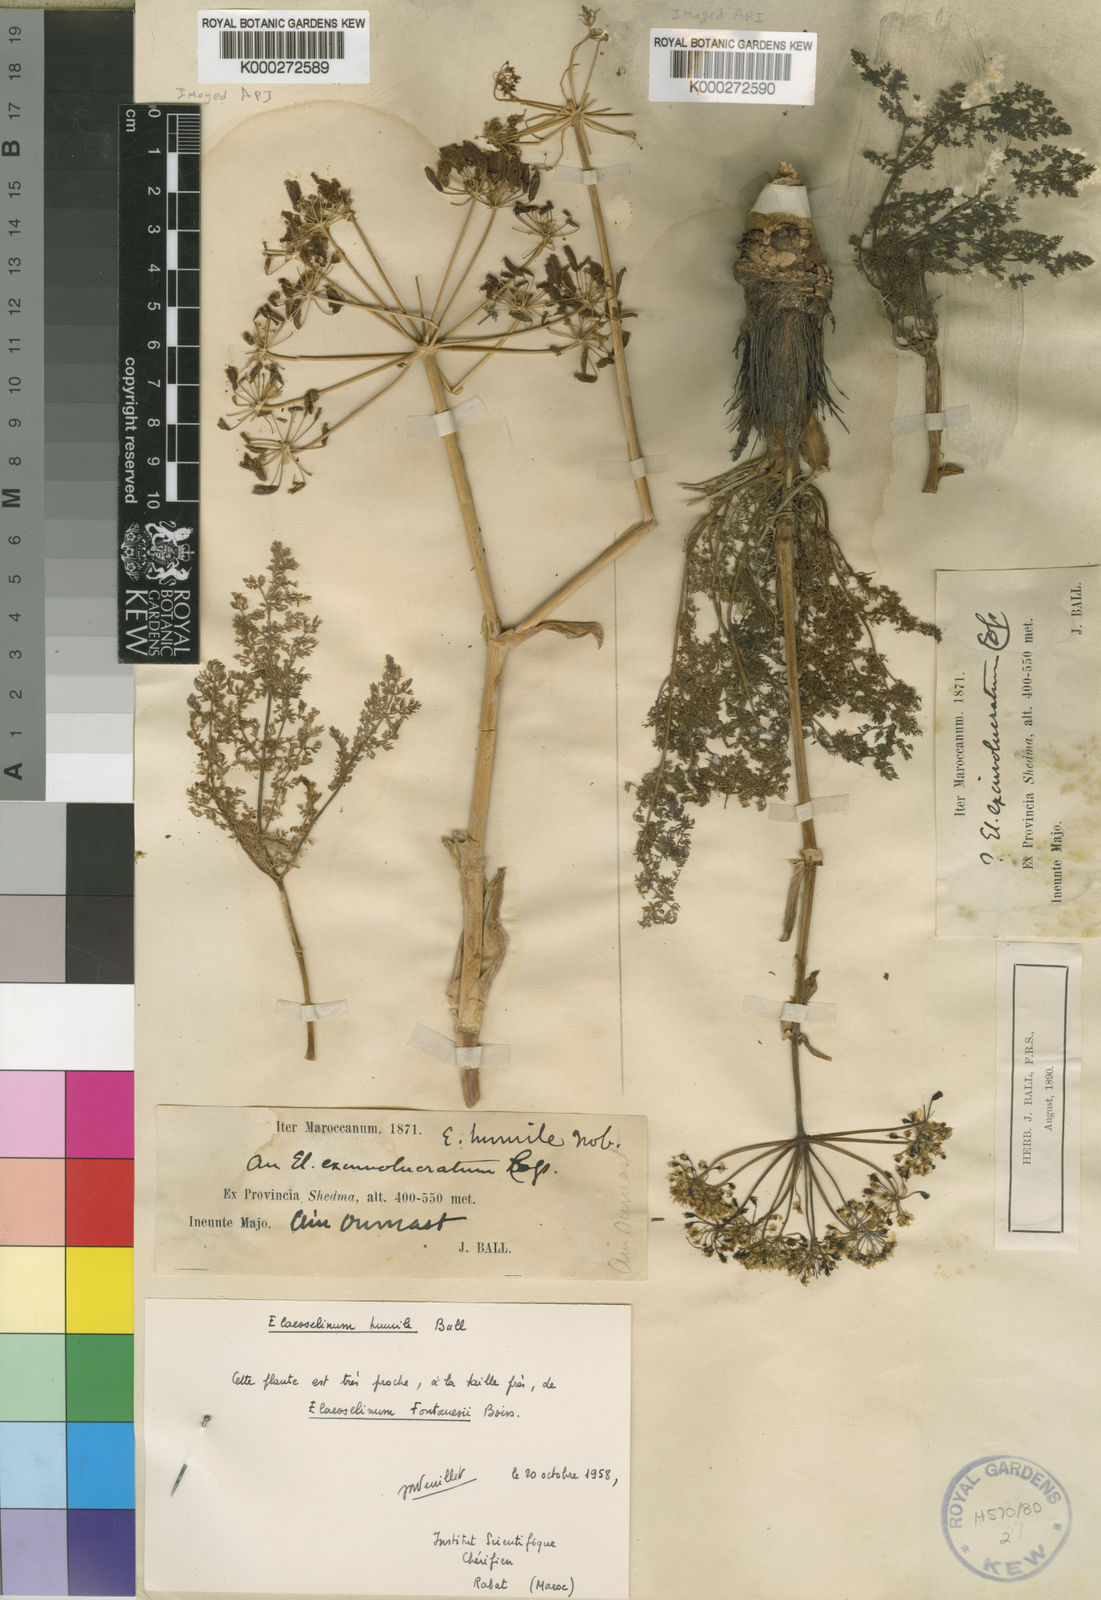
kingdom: Plantae
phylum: Tracheophyta
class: Magnoliopsida
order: Apiales
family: Apiaceae
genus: Thapsia
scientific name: Thapsia thapsioides
